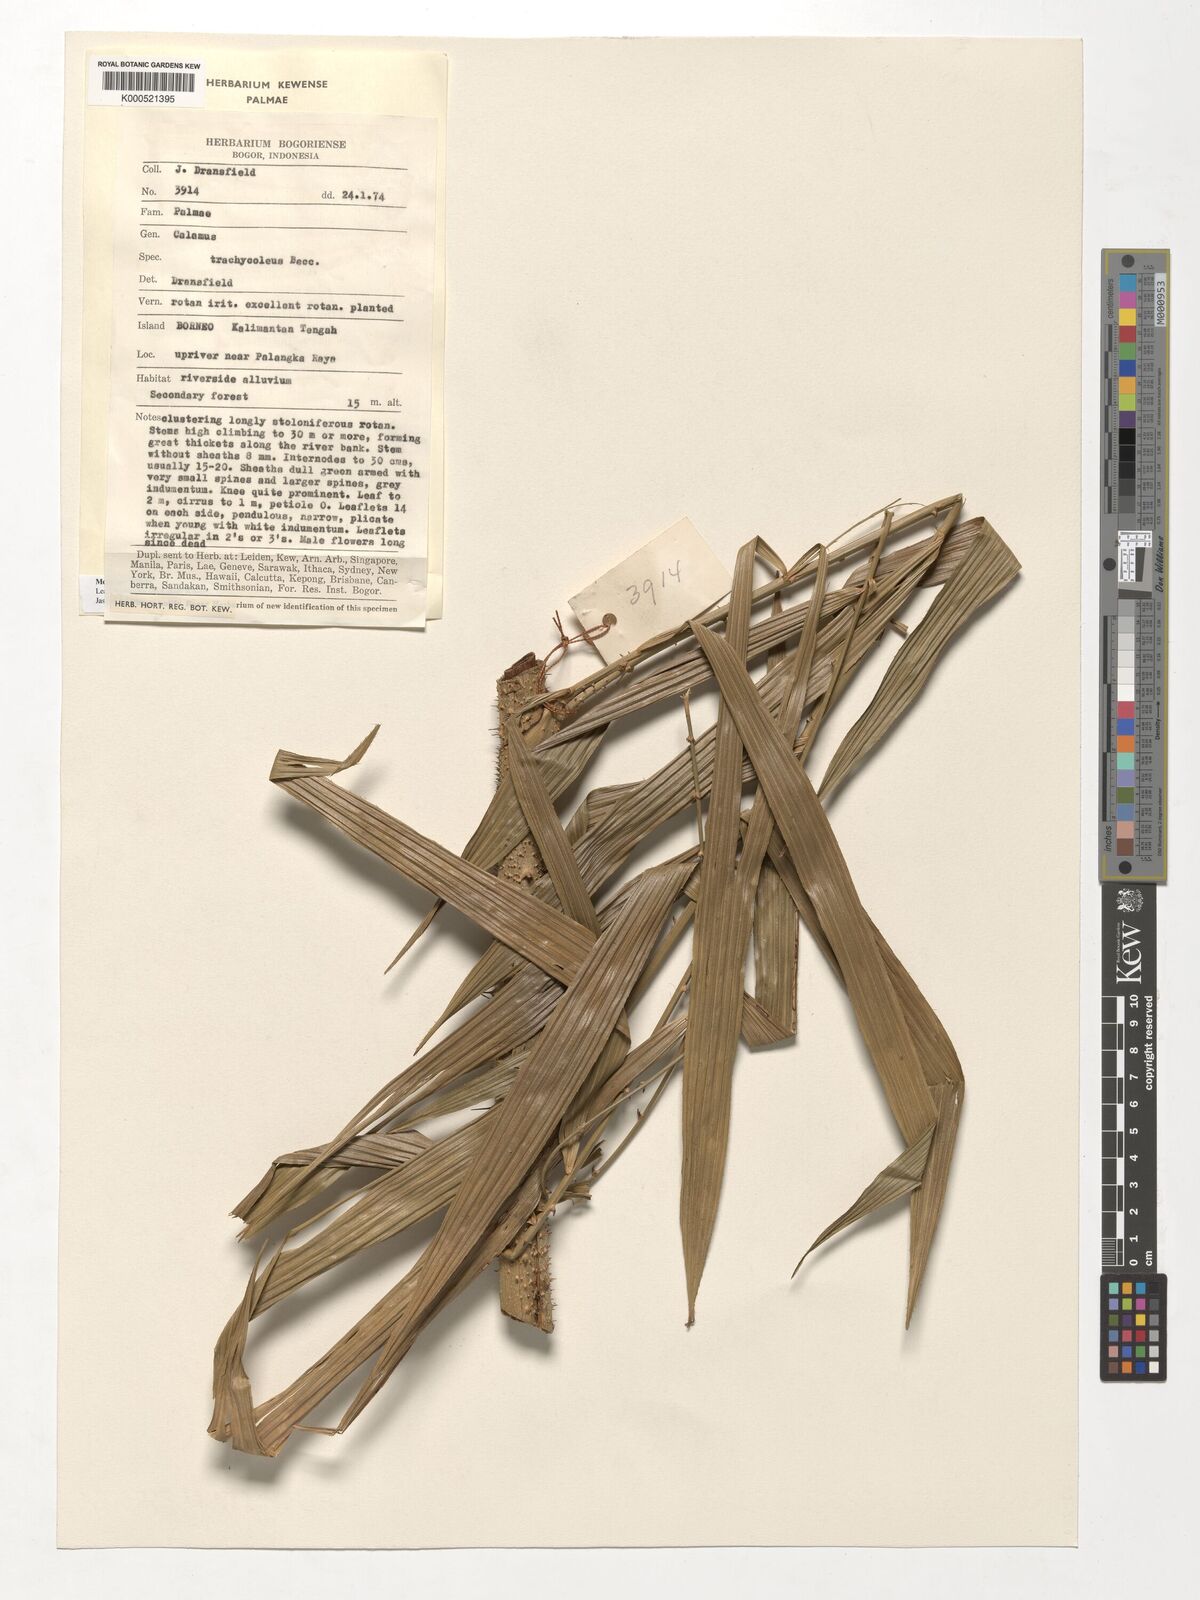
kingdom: Plantae
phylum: Tracheophyta
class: Liliopsida
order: Arecales
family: Arecaceae
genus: Calamus
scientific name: Calamus trachycoleus
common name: Rattan palm
